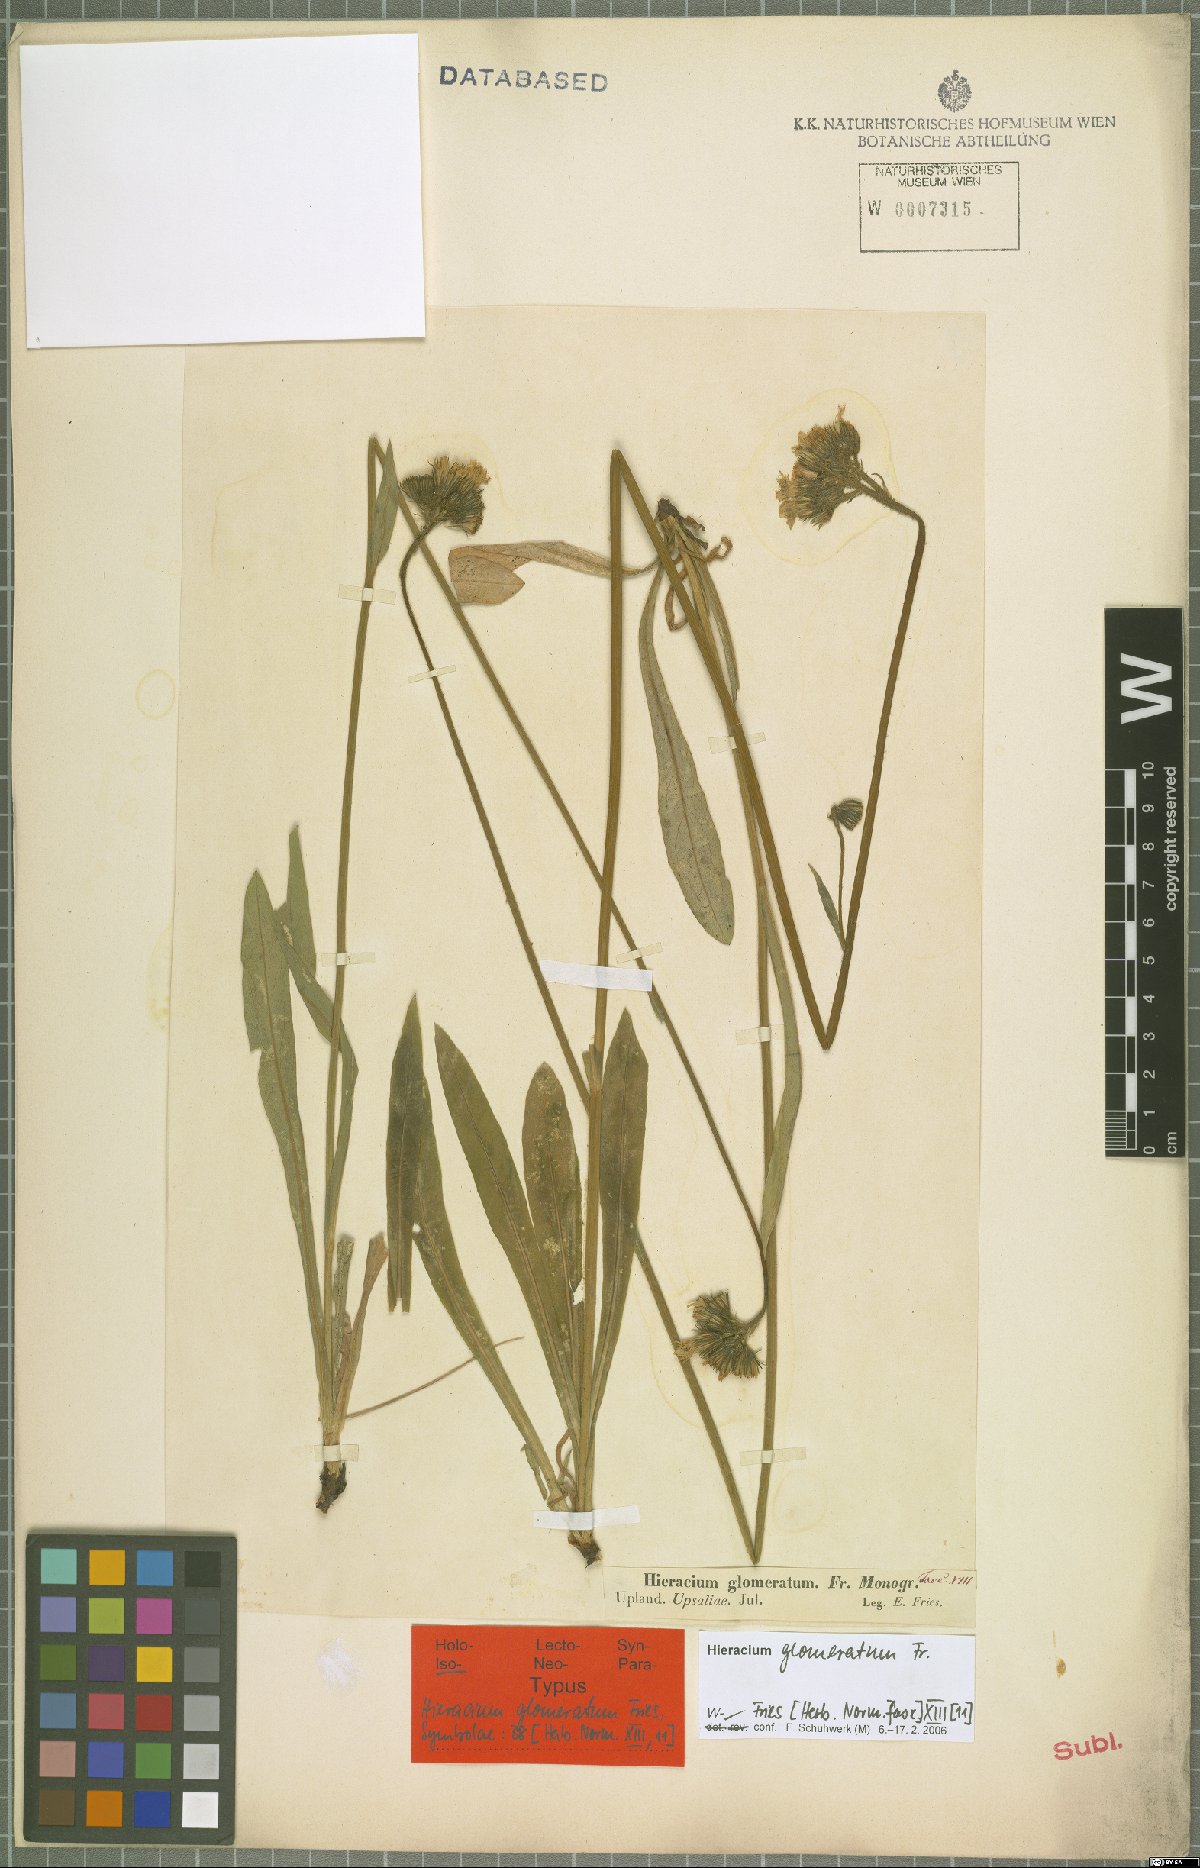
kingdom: Plantae
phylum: Tracheophyta
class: Magnoliopsida
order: Asterales
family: Asteraceae
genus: Hieracium
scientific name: Hieracium glomeratum
